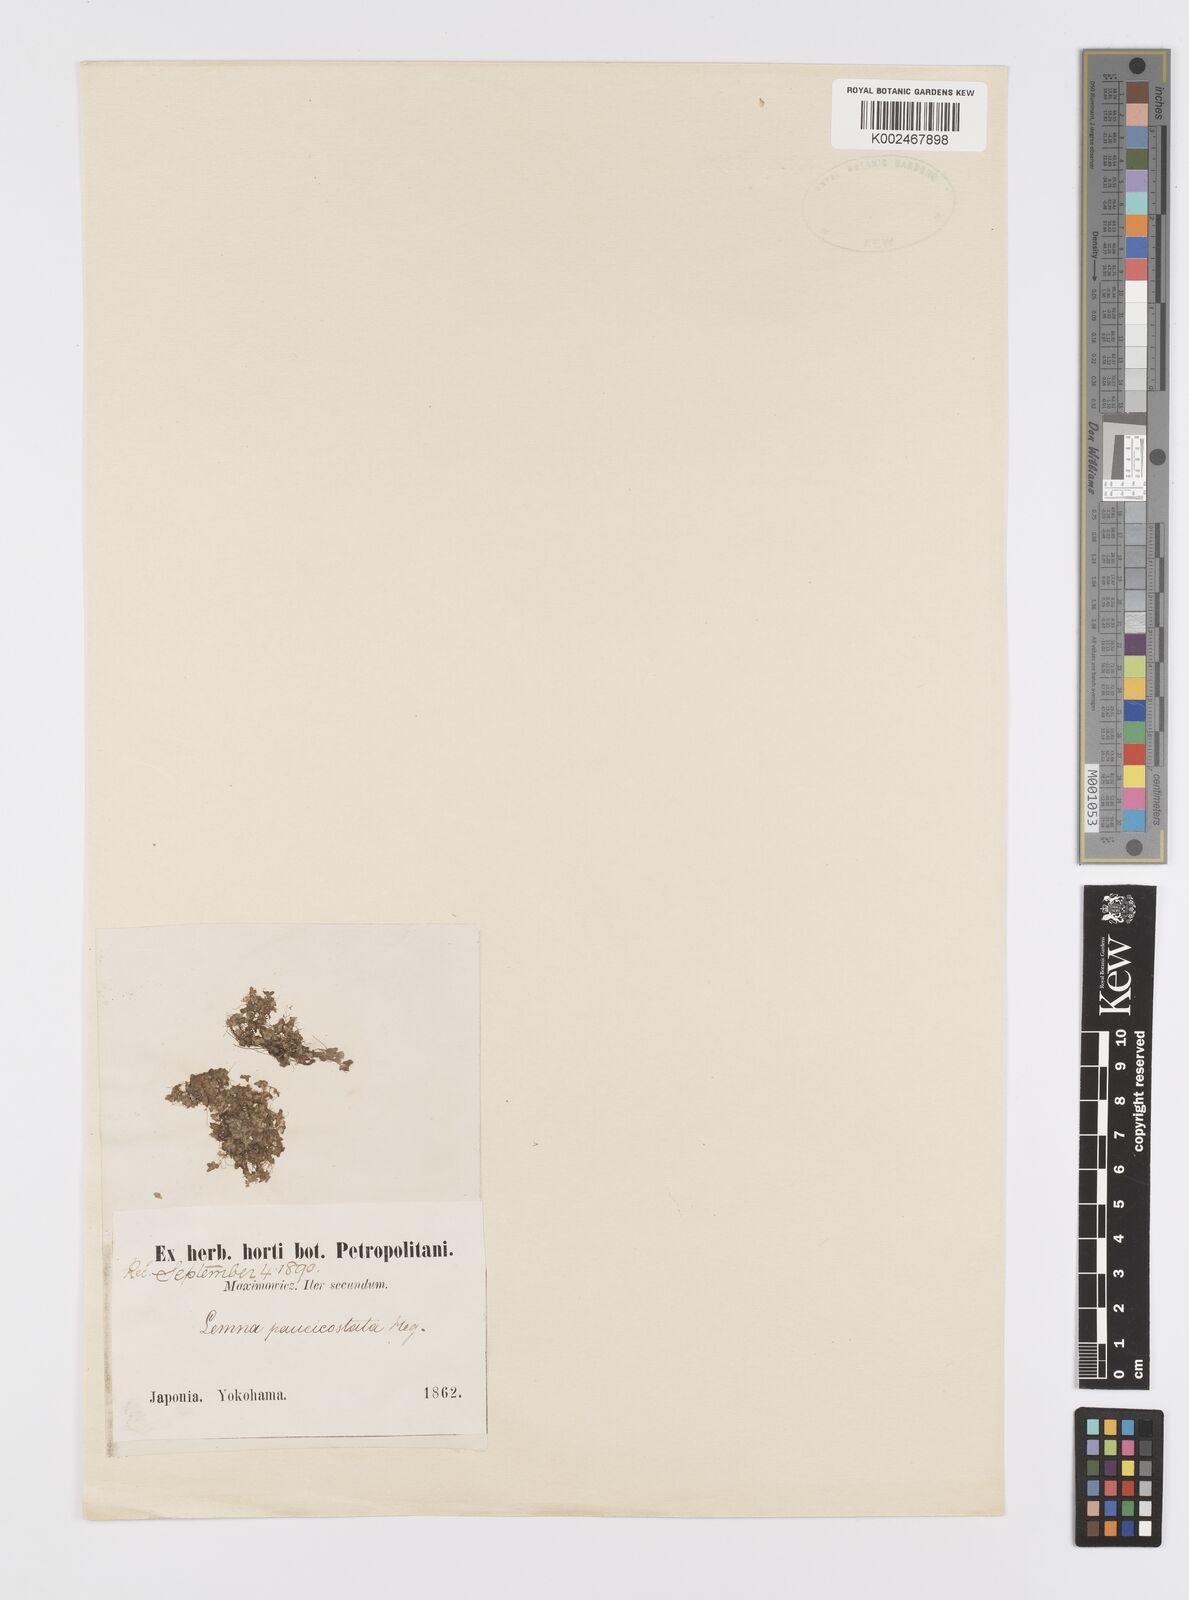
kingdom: Plantae
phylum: Tracheophyta
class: Liliopsida
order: Alismatales
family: Araceae
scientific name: Araceae
